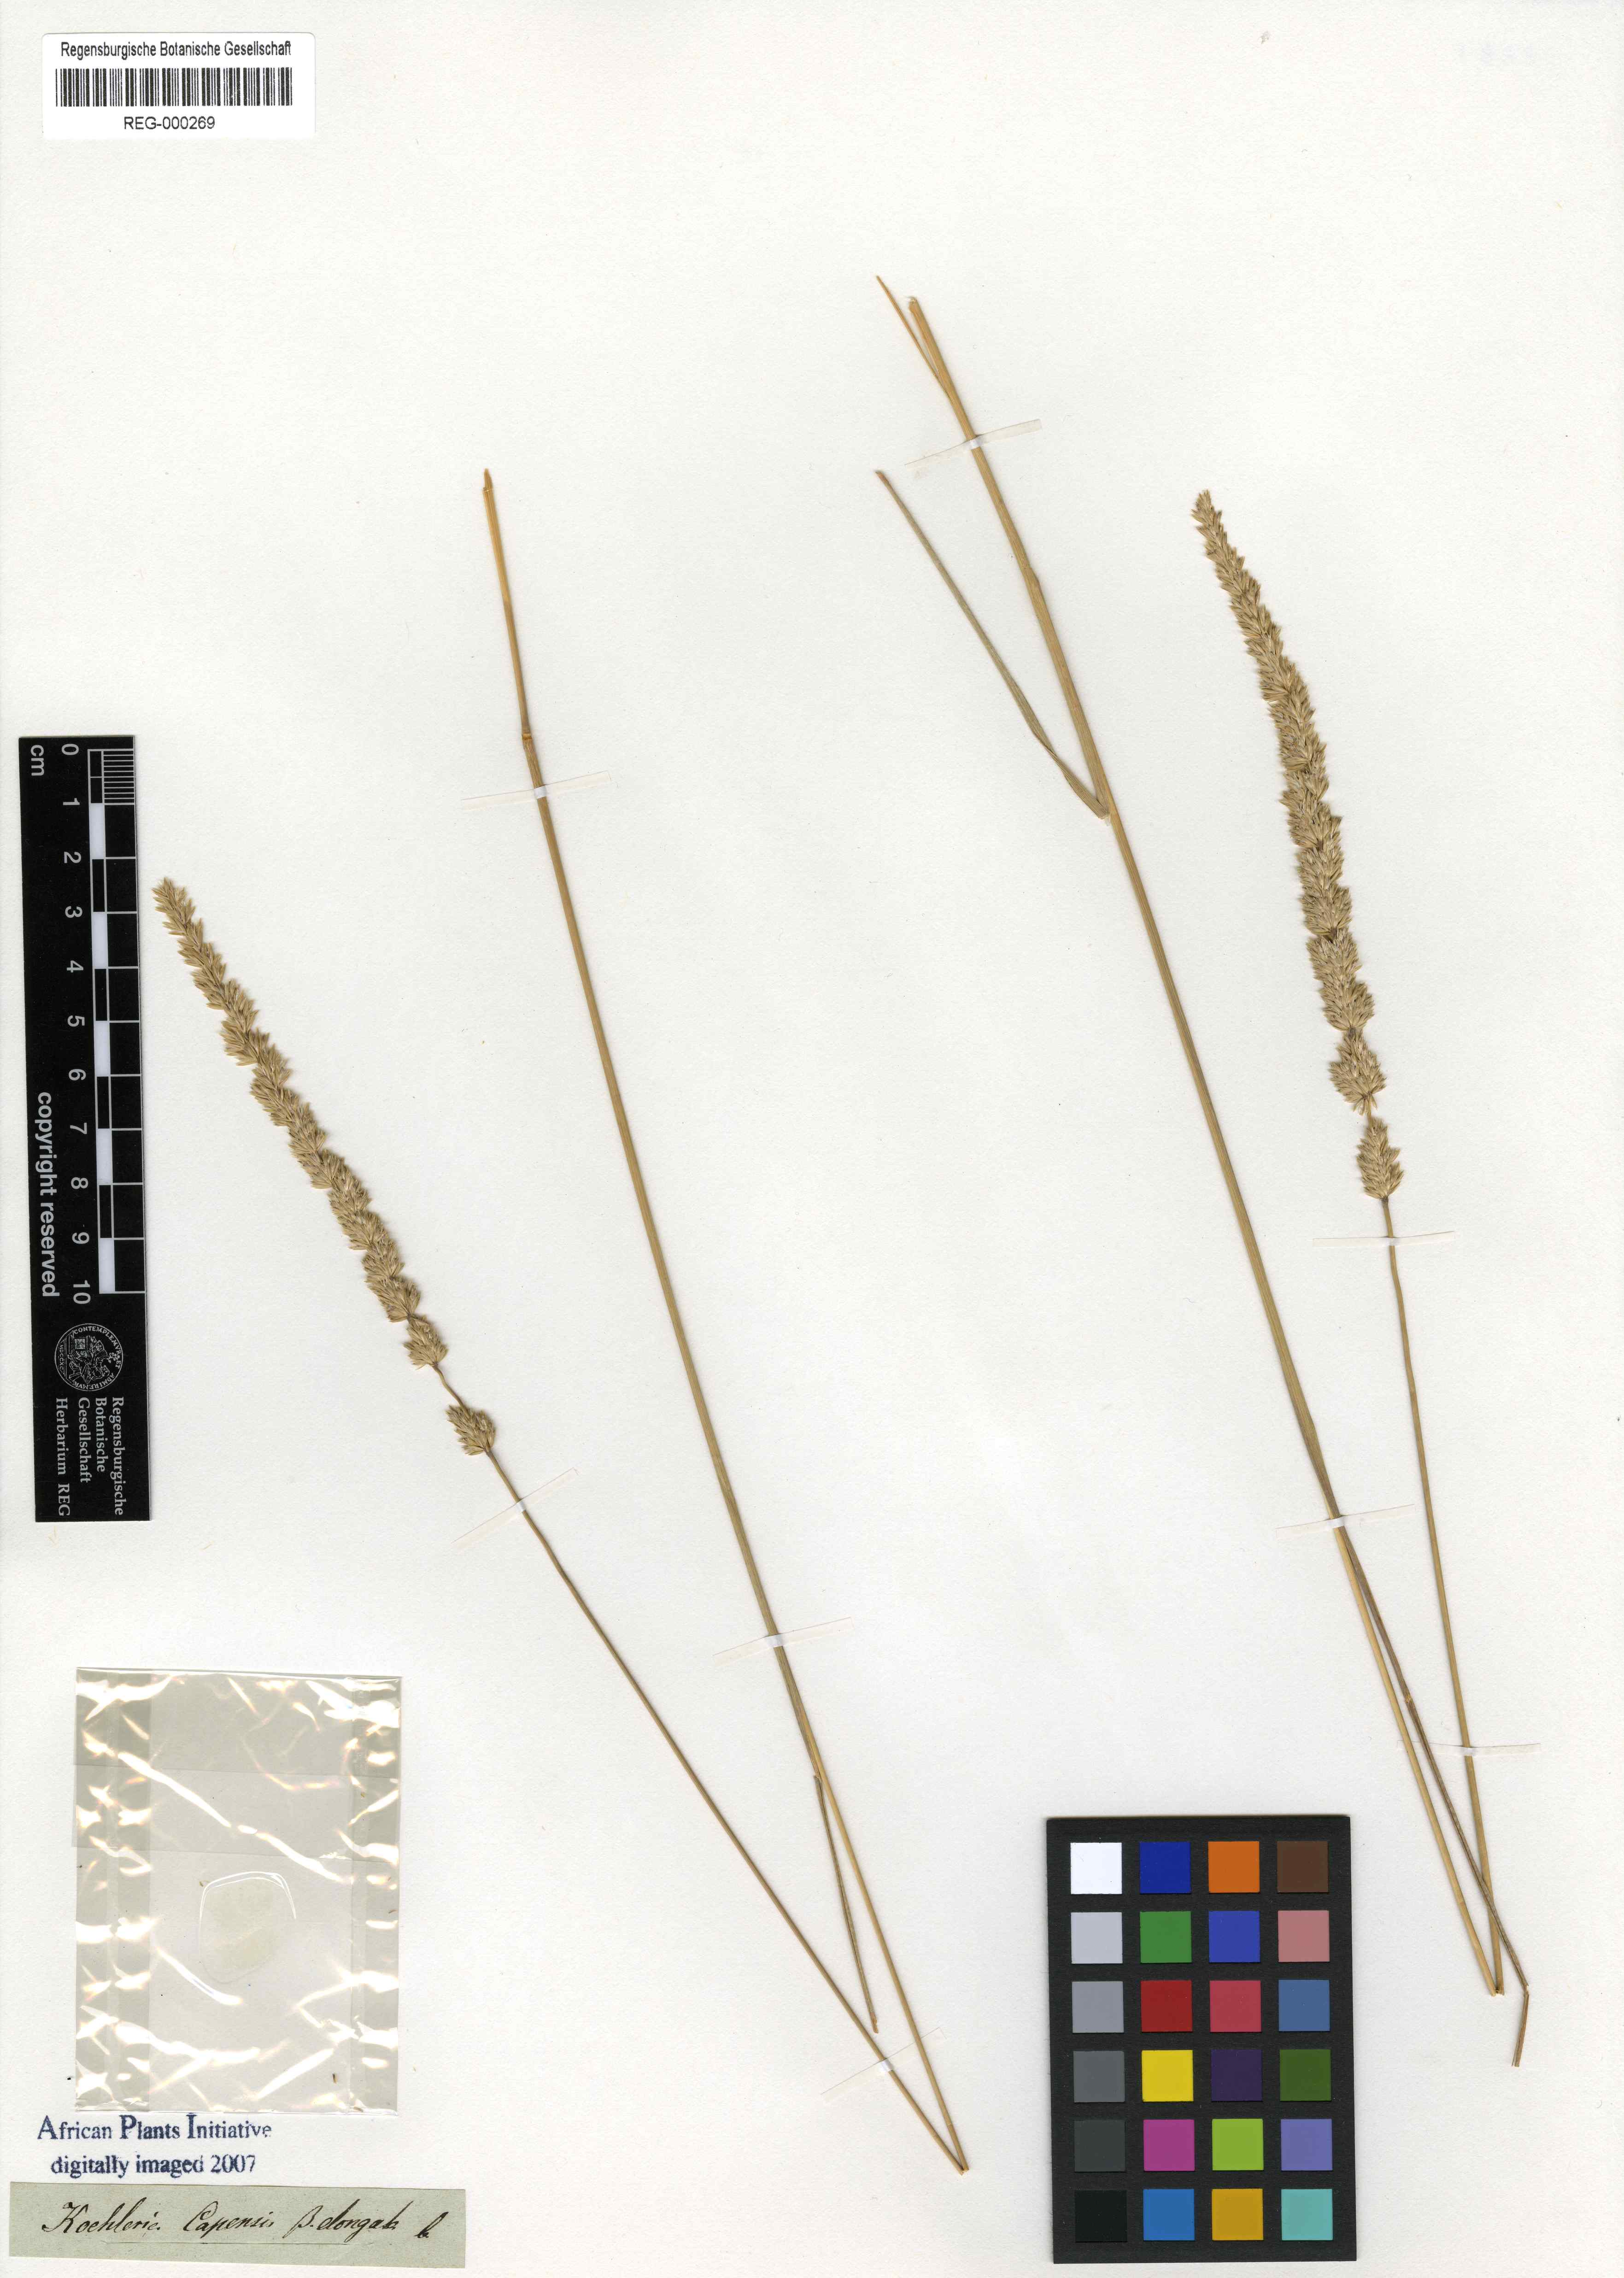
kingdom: Plantae
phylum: Tracheophyta
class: Liliopsida
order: Poales
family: Poaceae
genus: Koeleria
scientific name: Koeleria macrantha
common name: Crested hair-grass
